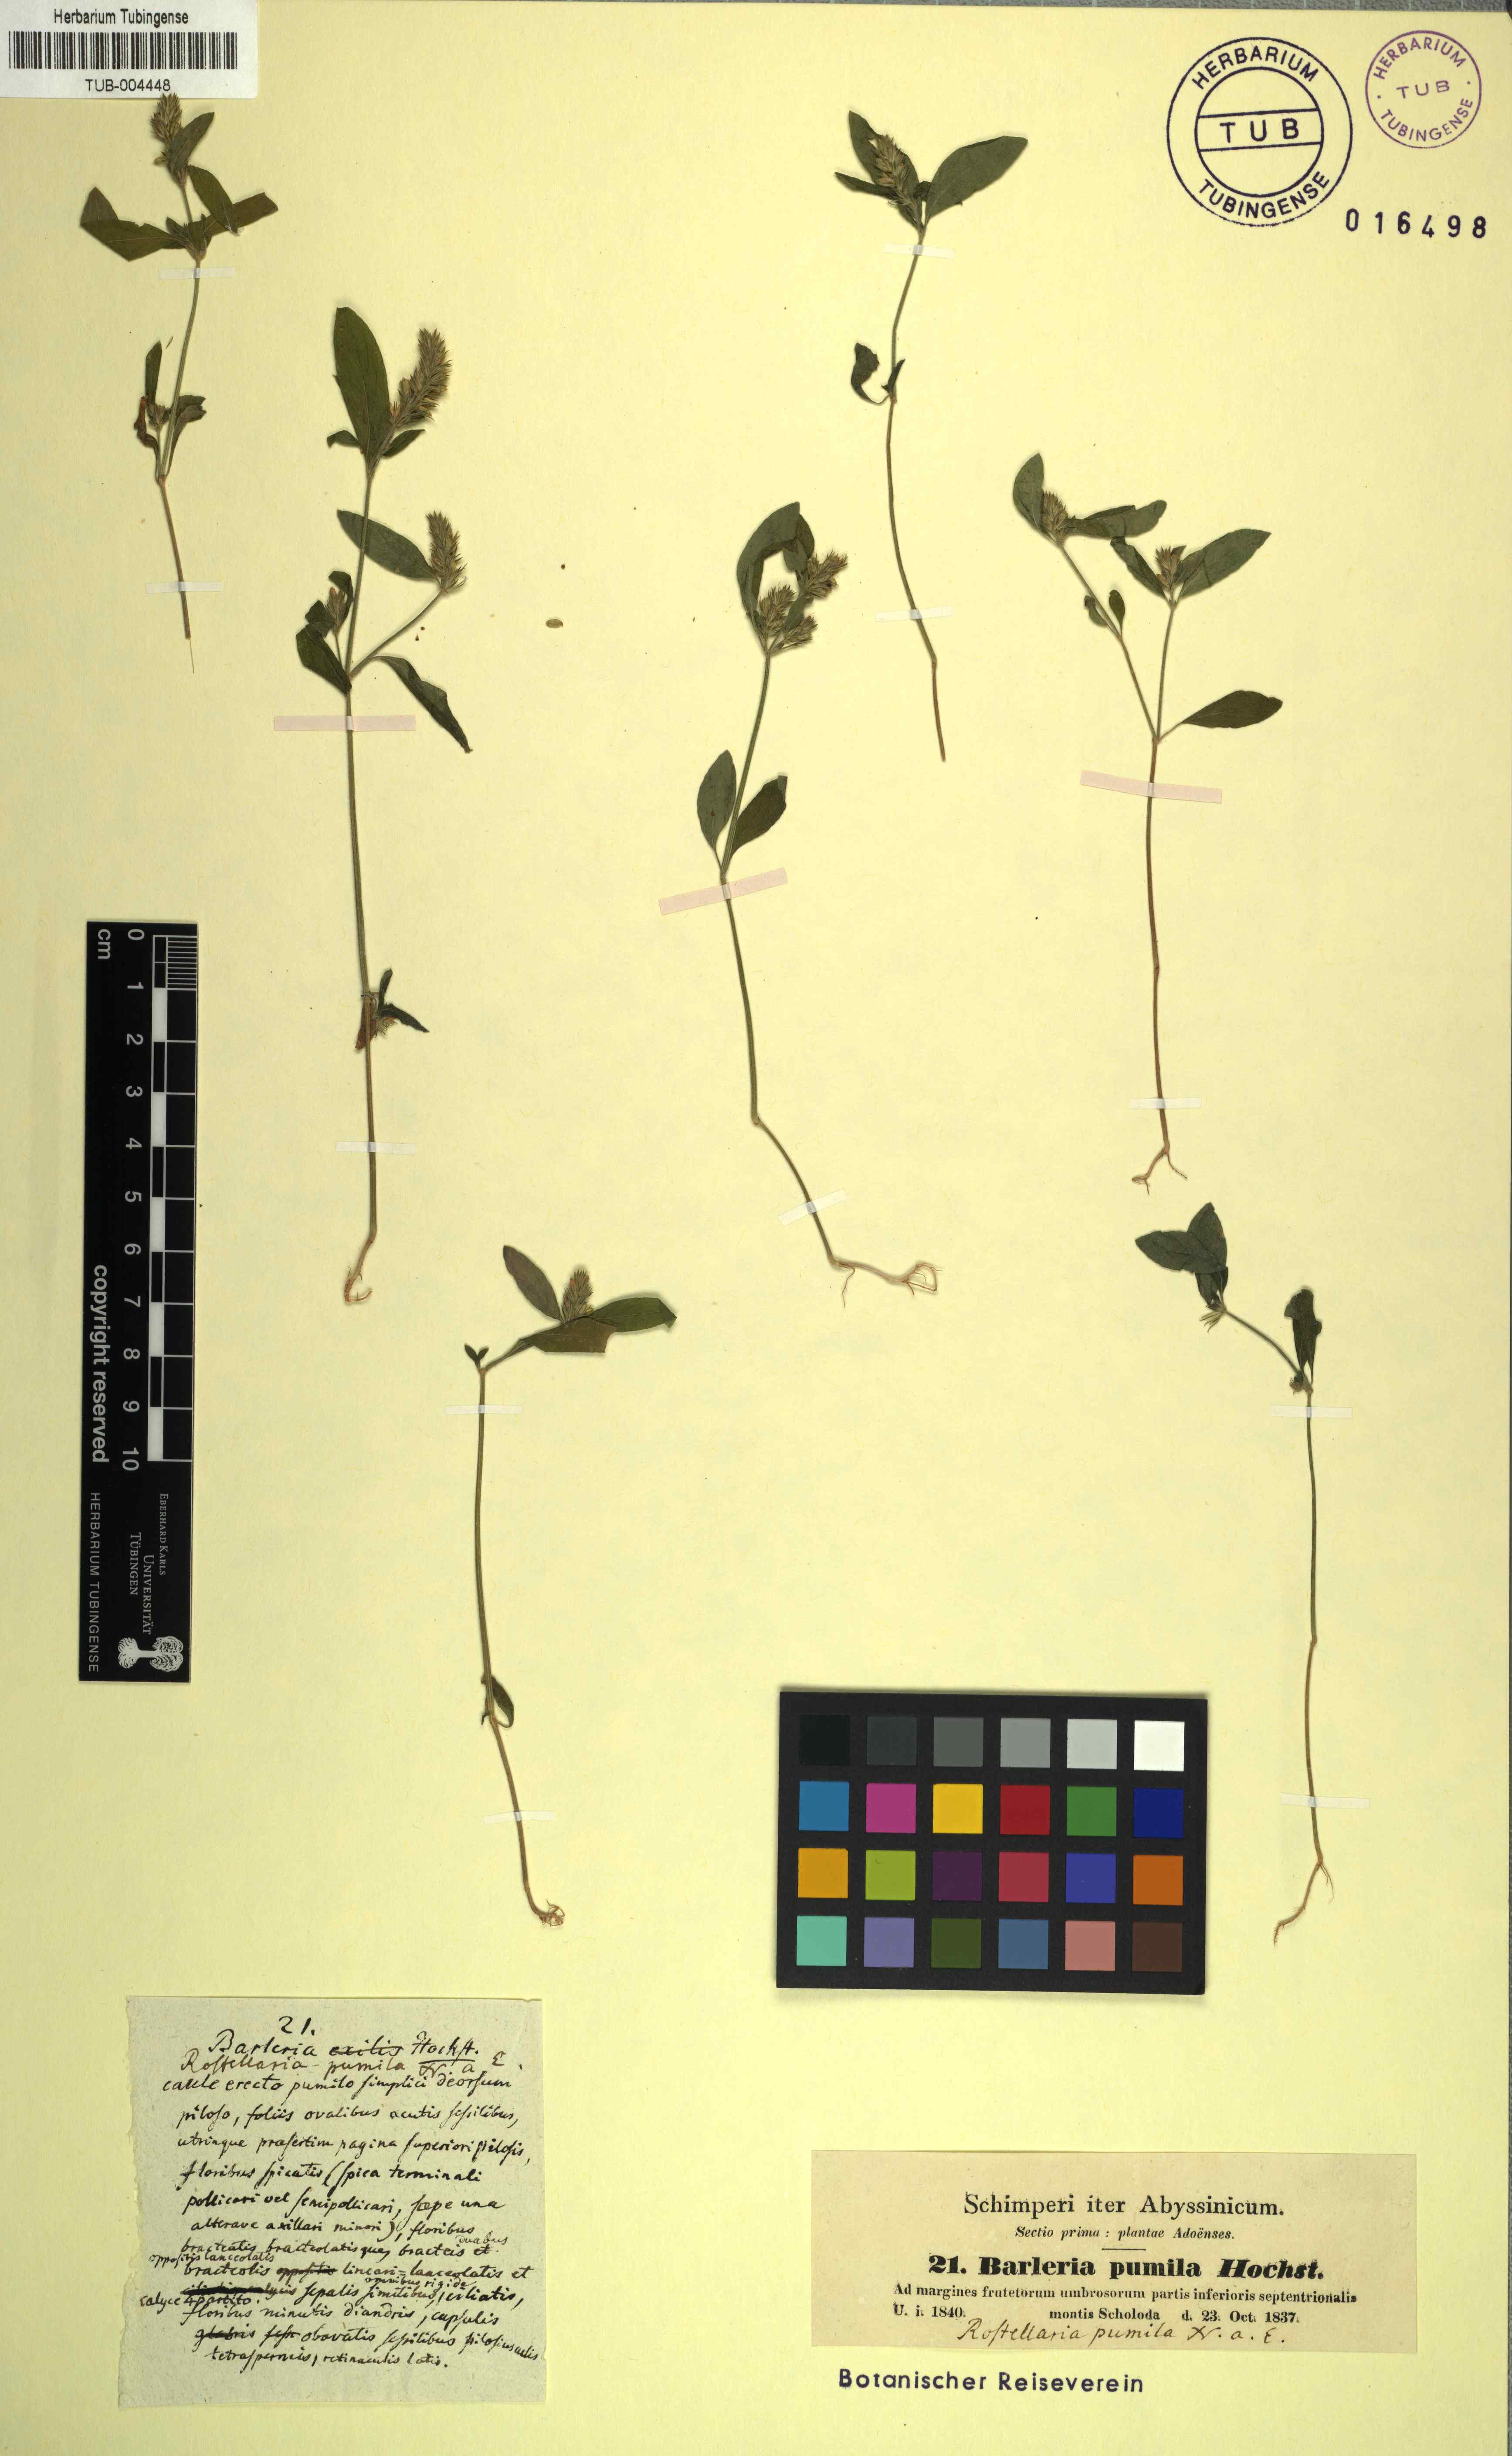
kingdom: Plantae
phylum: Tracheophyta
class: Magnoliopsida
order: Lamiales
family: Acanthaceae
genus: Rostellularia
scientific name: Rostellularia mollissima
